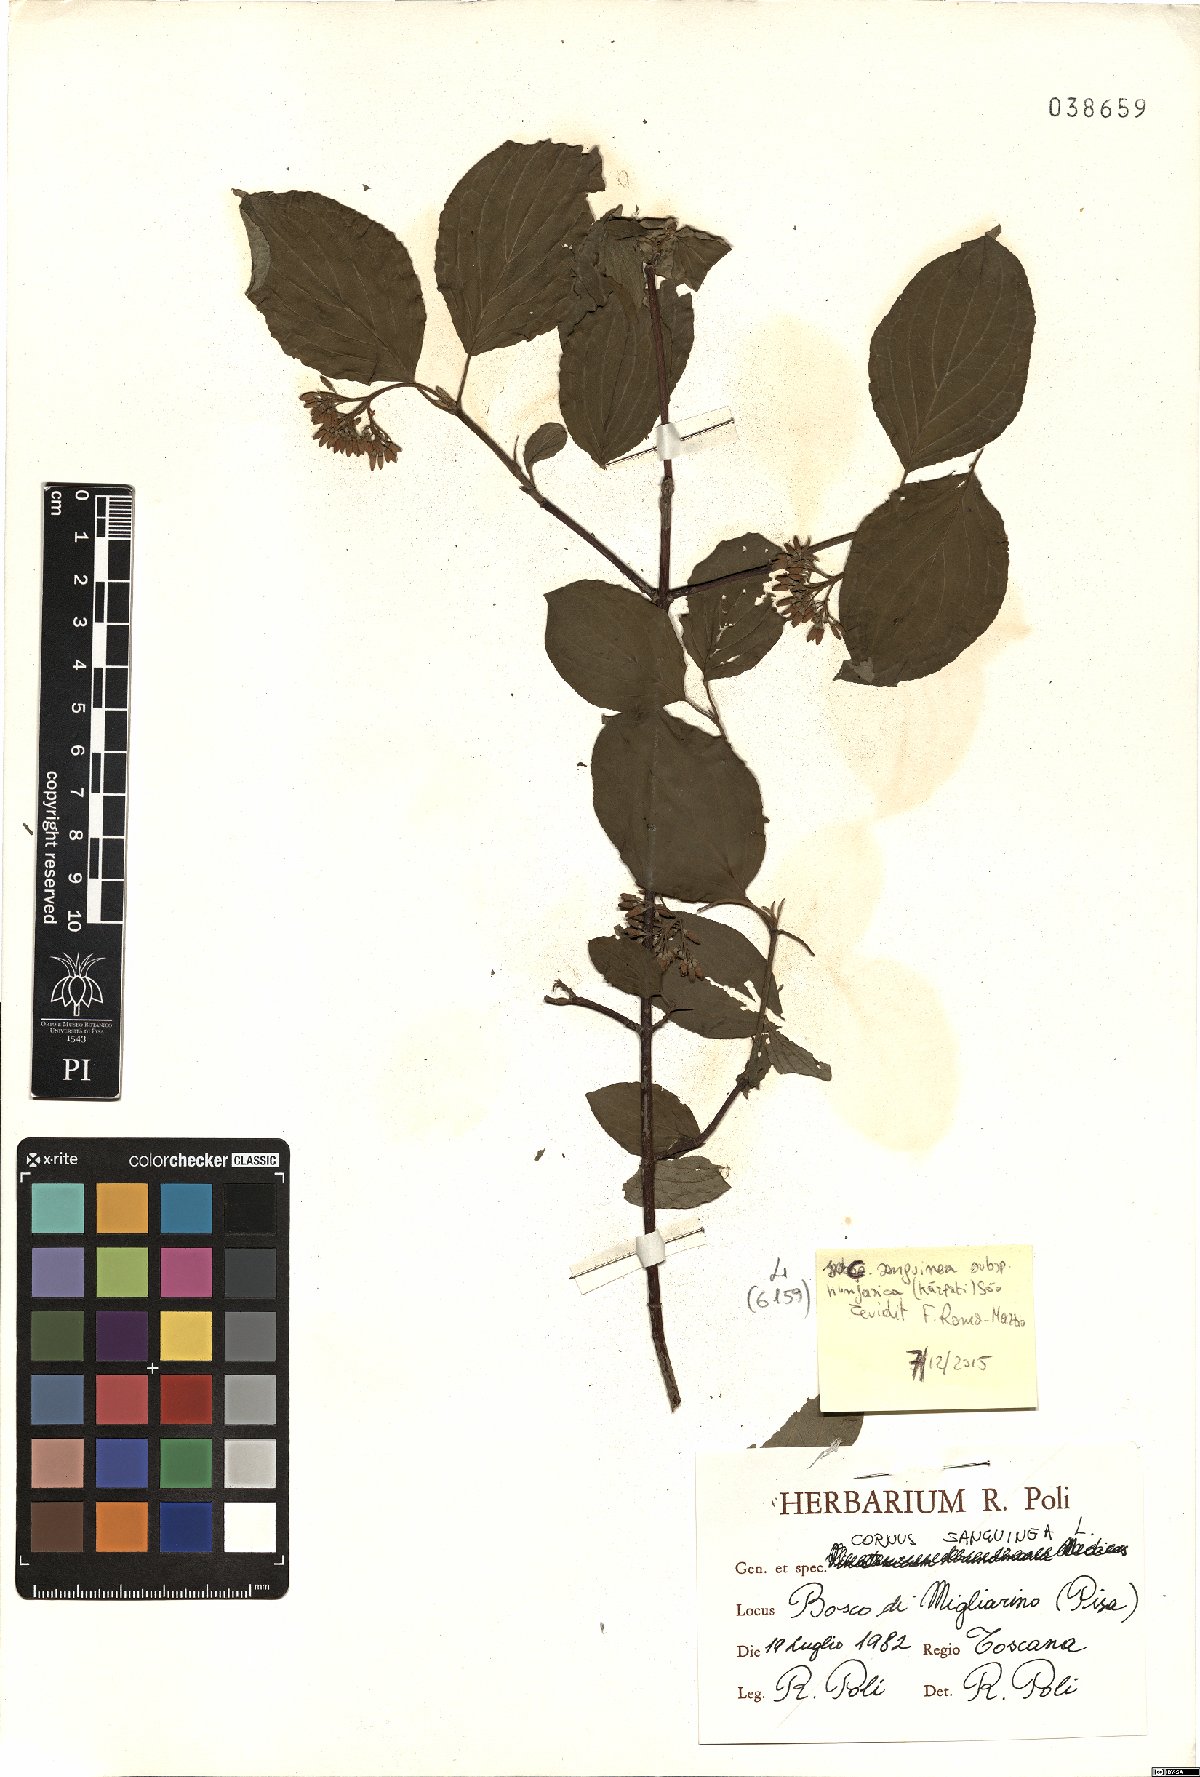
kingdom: Plantae
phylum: Tracheophyta
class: Magnoliopsida
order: Cornales
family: Cornaceae
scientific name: Cornaceae
